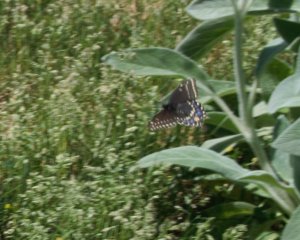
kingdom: Animalia
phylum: Arthropoda
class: Insecta
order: Lepidoptera
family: Papilionidae
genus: Papilio
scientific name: Papilio polyxenes
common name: Black Swallowtail
